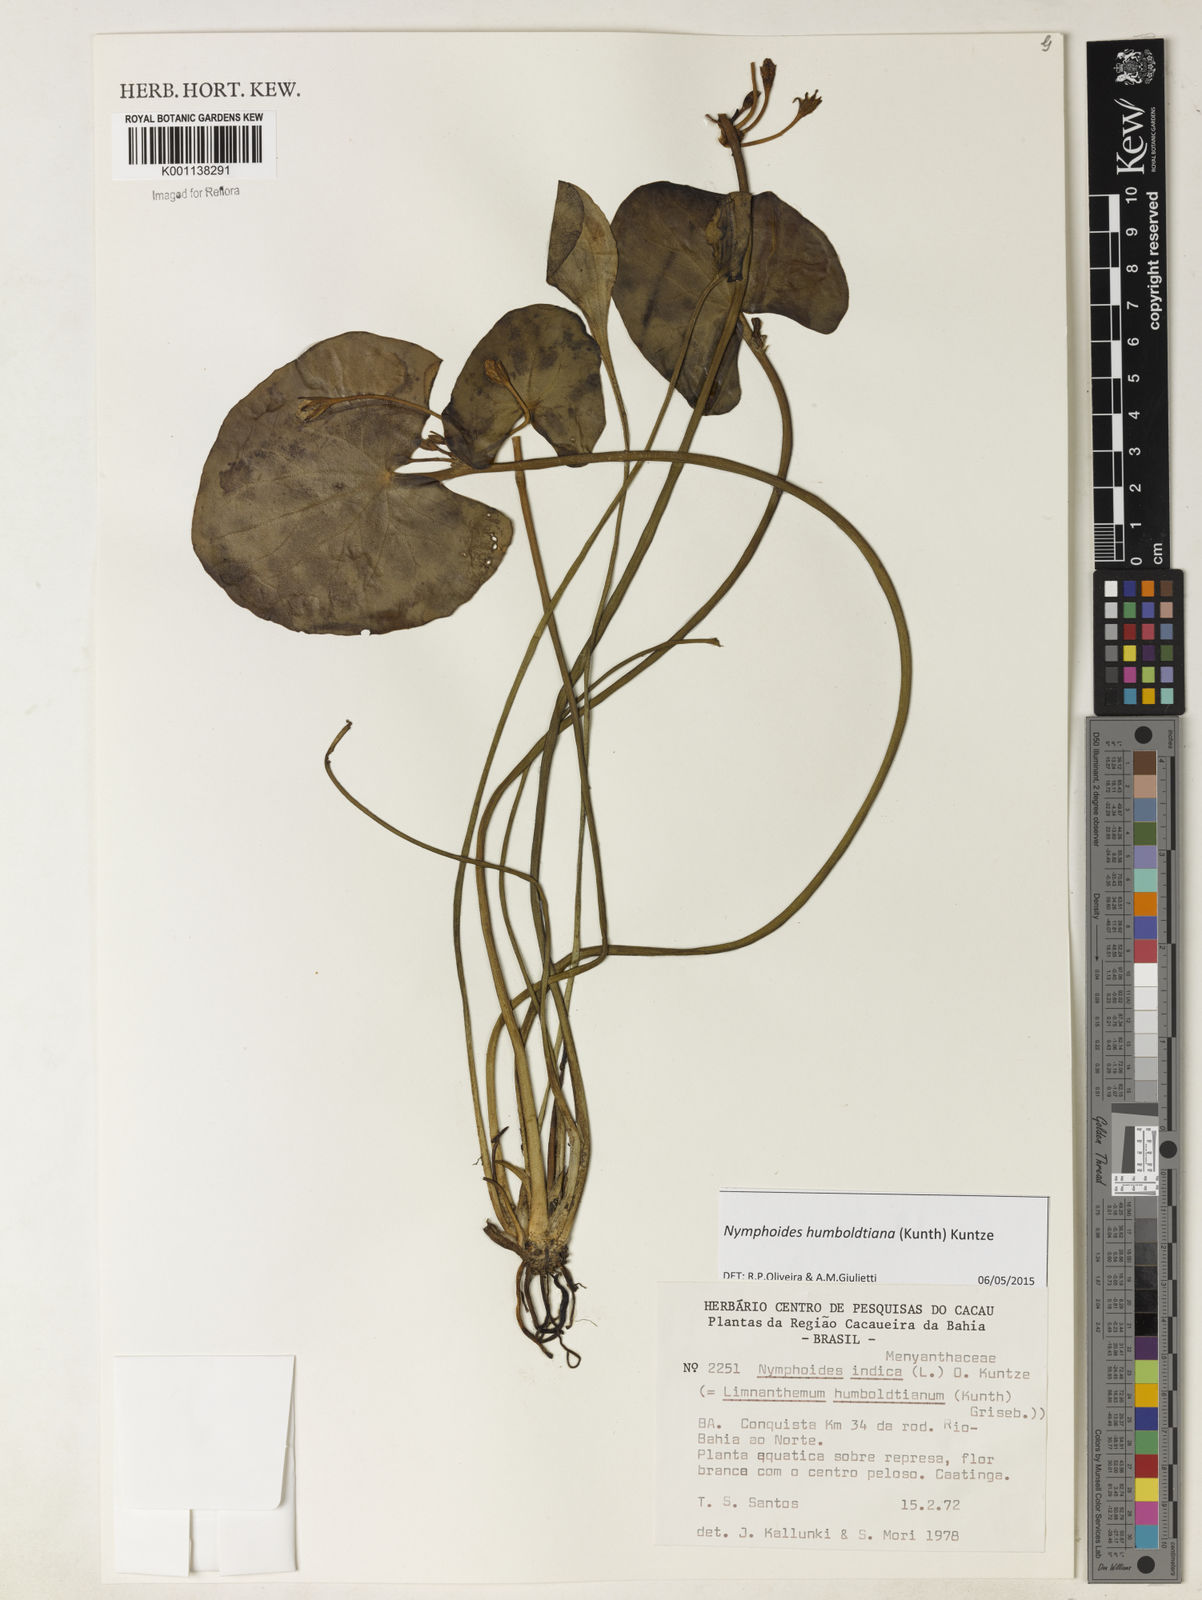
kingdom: Plantae
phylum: Tracheophyta
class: Magnoliopsida
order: Asterales
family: Menyanthaceae
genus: Nymphoides
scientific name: Nymphoides
